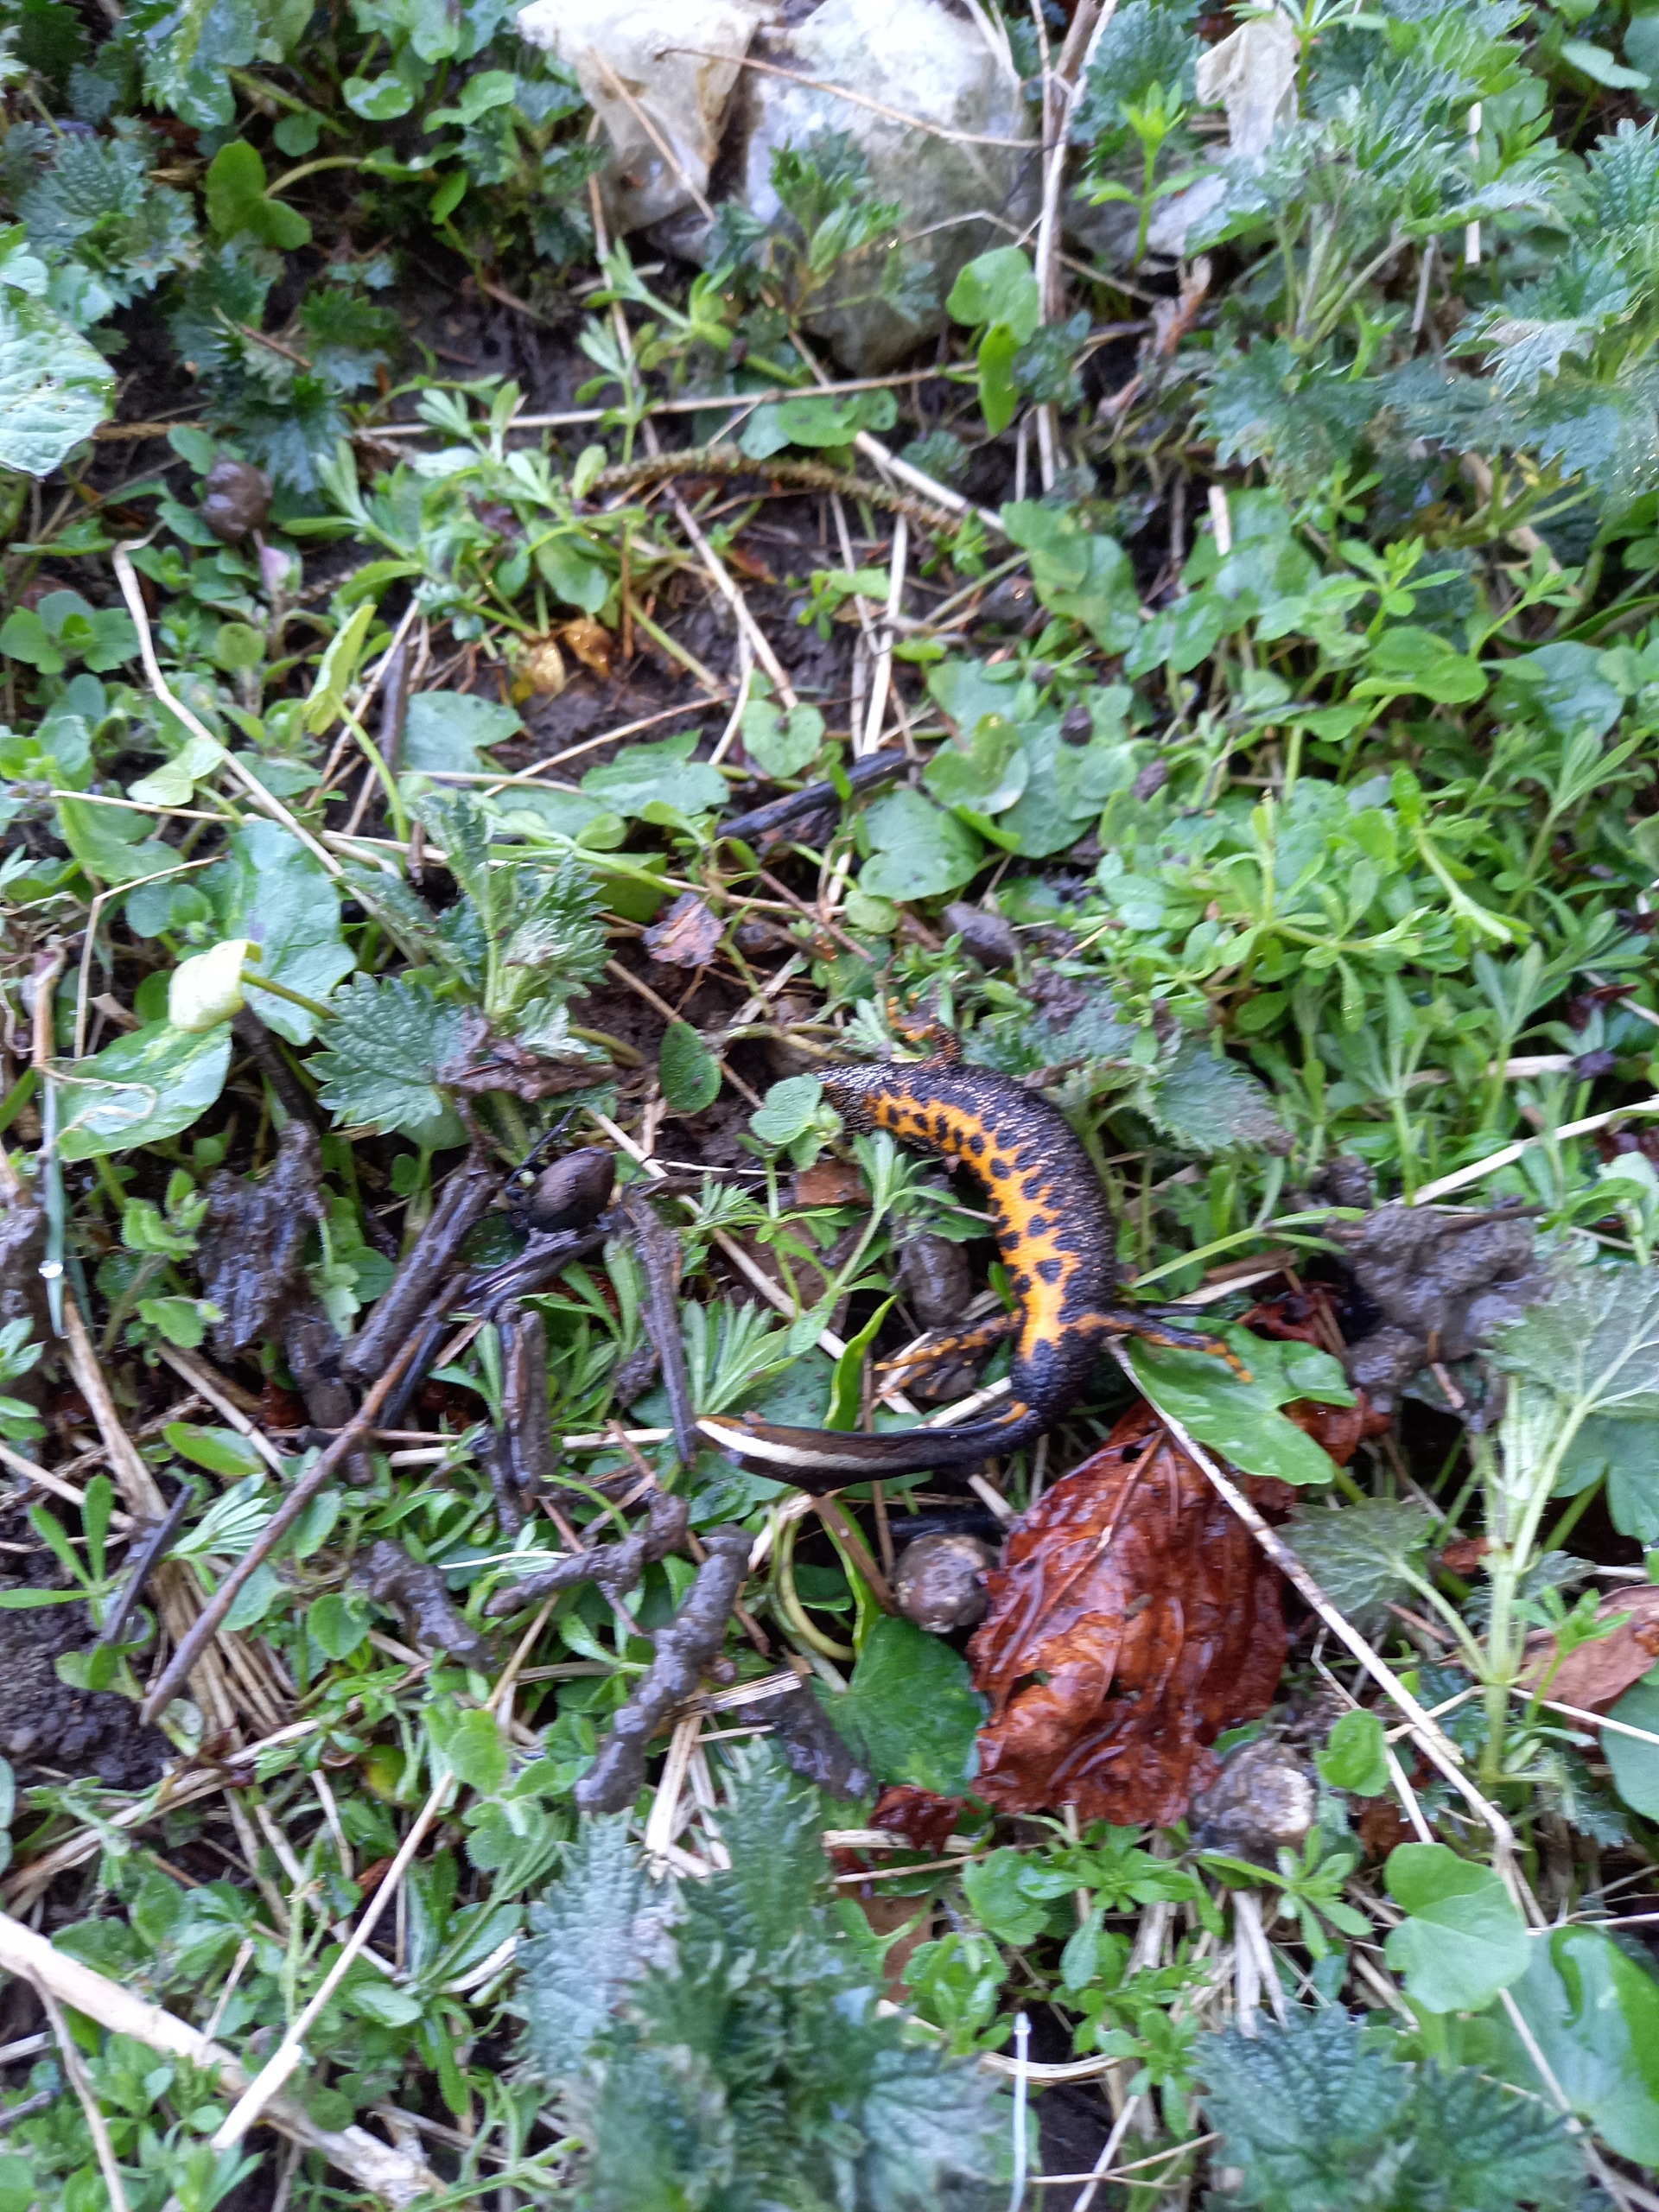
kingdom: Animalia
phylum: Chordata
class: Amphibia
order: Caudata
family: Salamandridae
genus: Triturus
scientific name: Triturus cristatus
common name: Stor vandsalamander
